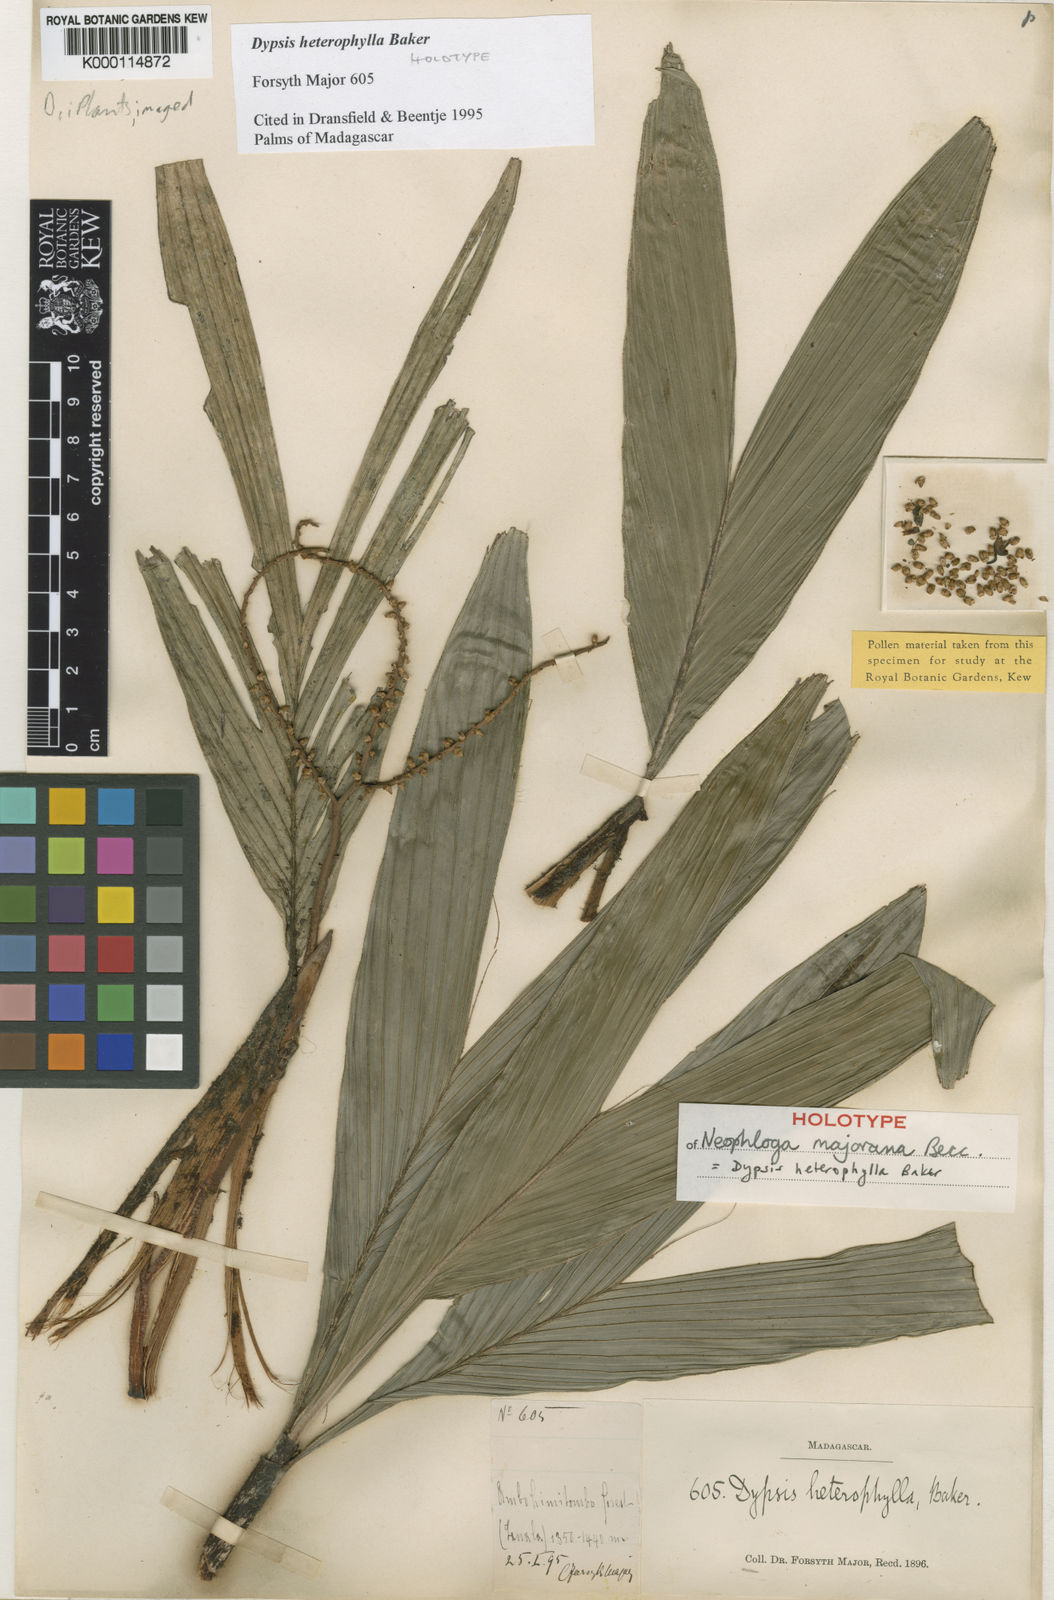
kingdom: Plantae
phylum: Tracheophyta
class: Liliopsida
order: Arecales
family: Arecaceae
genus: Dypsis
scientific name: Dypsis heterophylla
